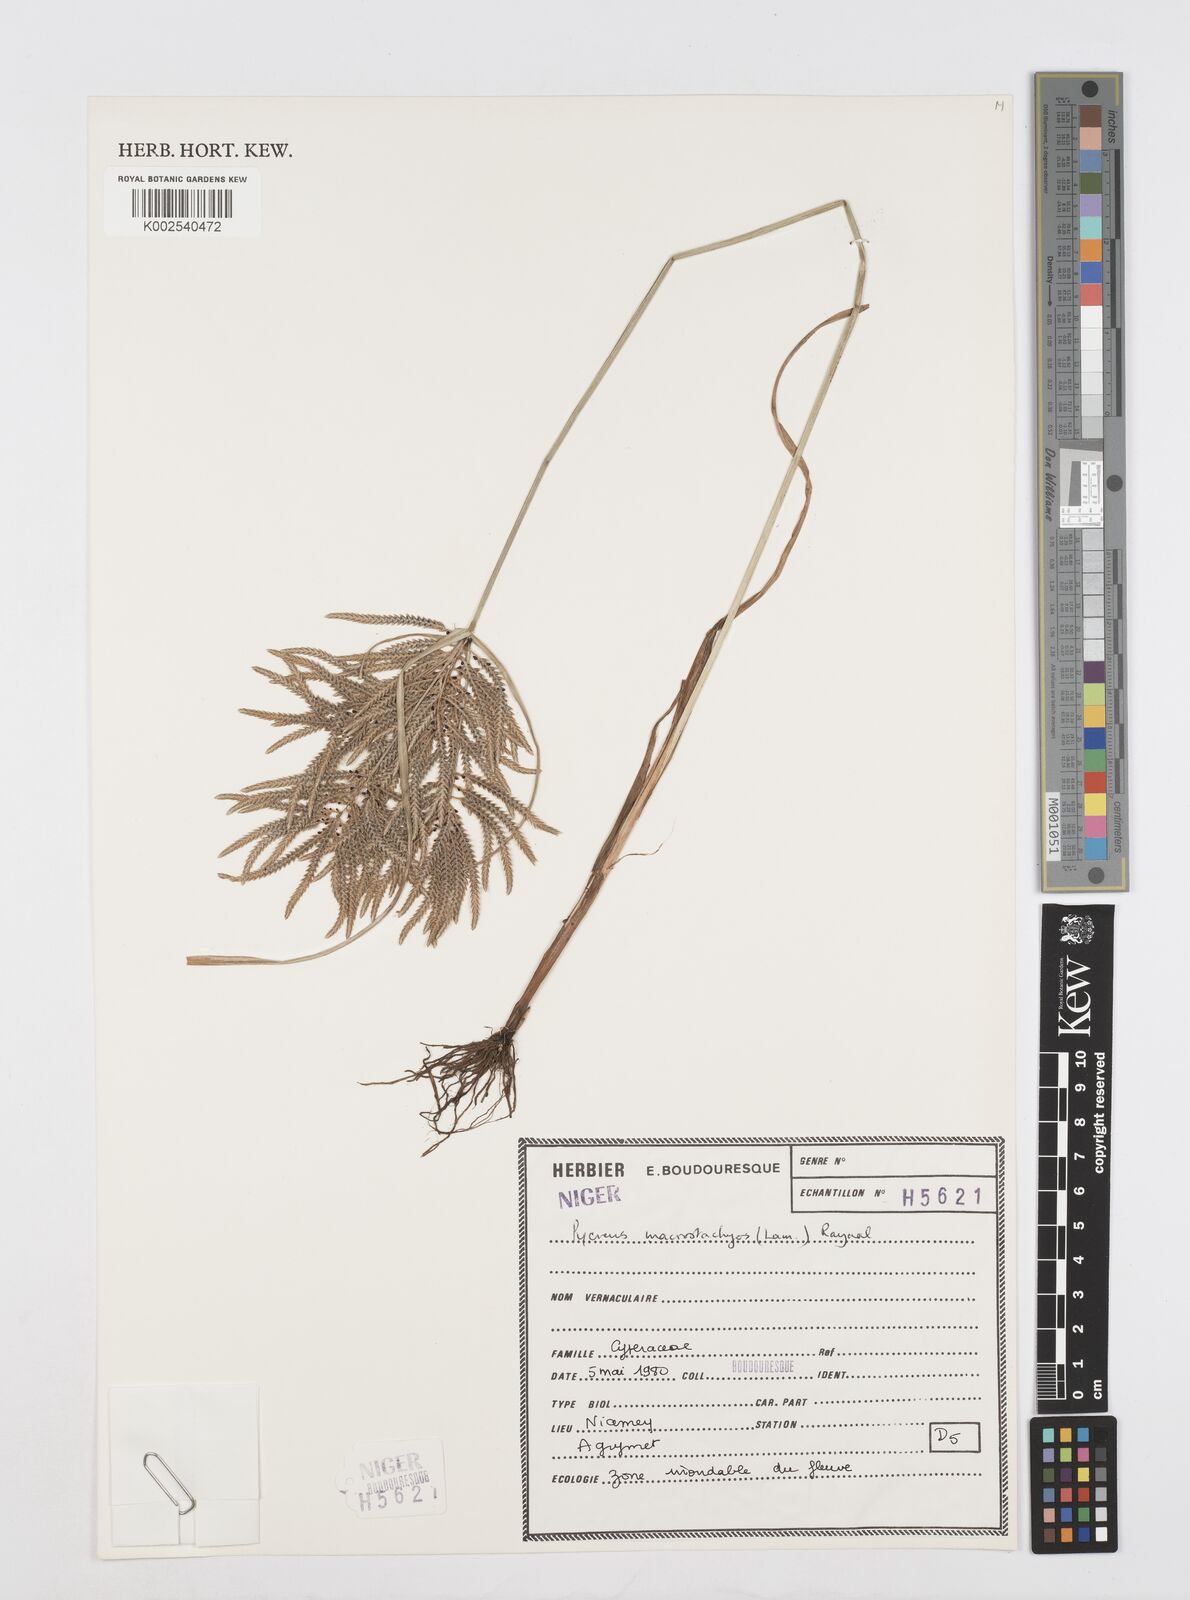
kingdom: Plantae
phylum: Tracheophyta
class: Liliopsida
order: Poales
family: Cyperaceae
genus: Cyperus
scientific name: Cyperus macrostachyos
